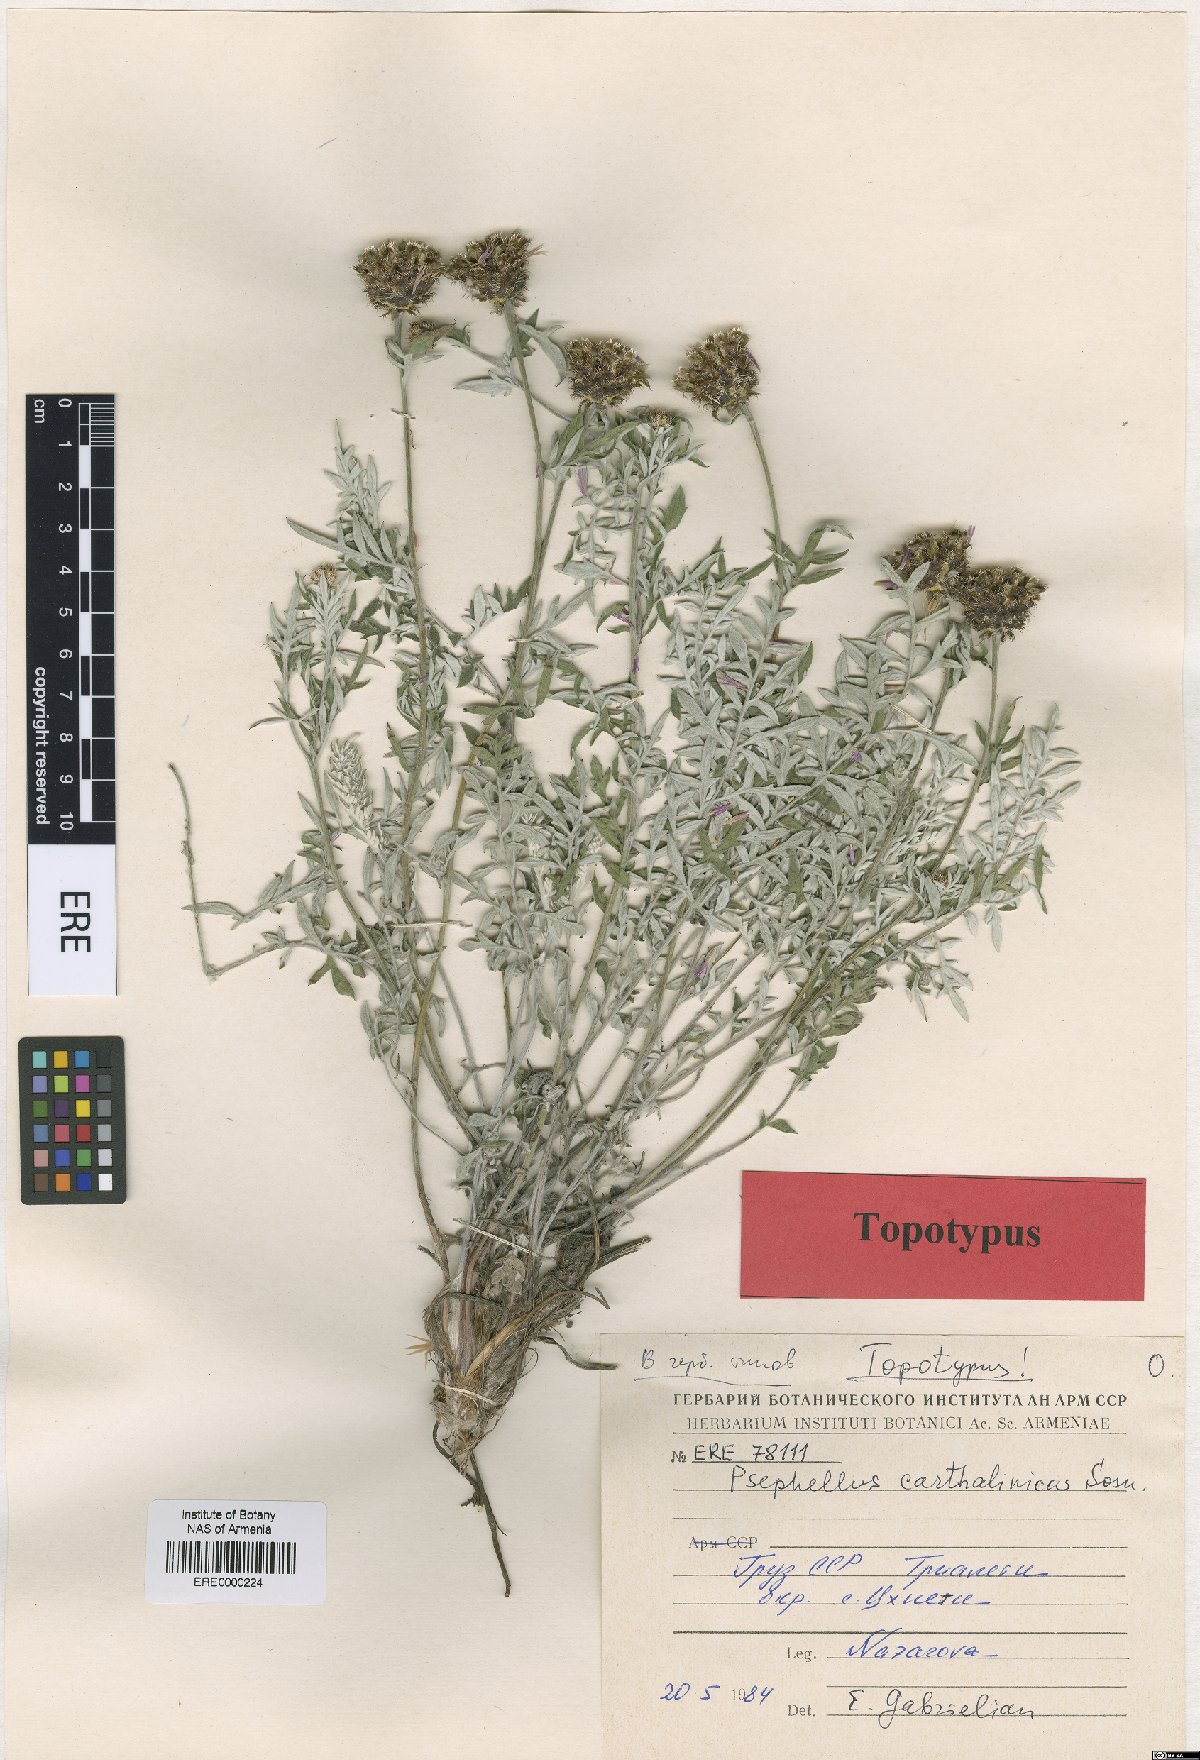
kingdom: Plantae
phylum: Tracheophyta
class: Magnoliopsida
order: Asterales
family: Asteraceae
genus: Psephellus
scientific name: Psephellus carthalinicus
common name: Carthalinian psephellus
